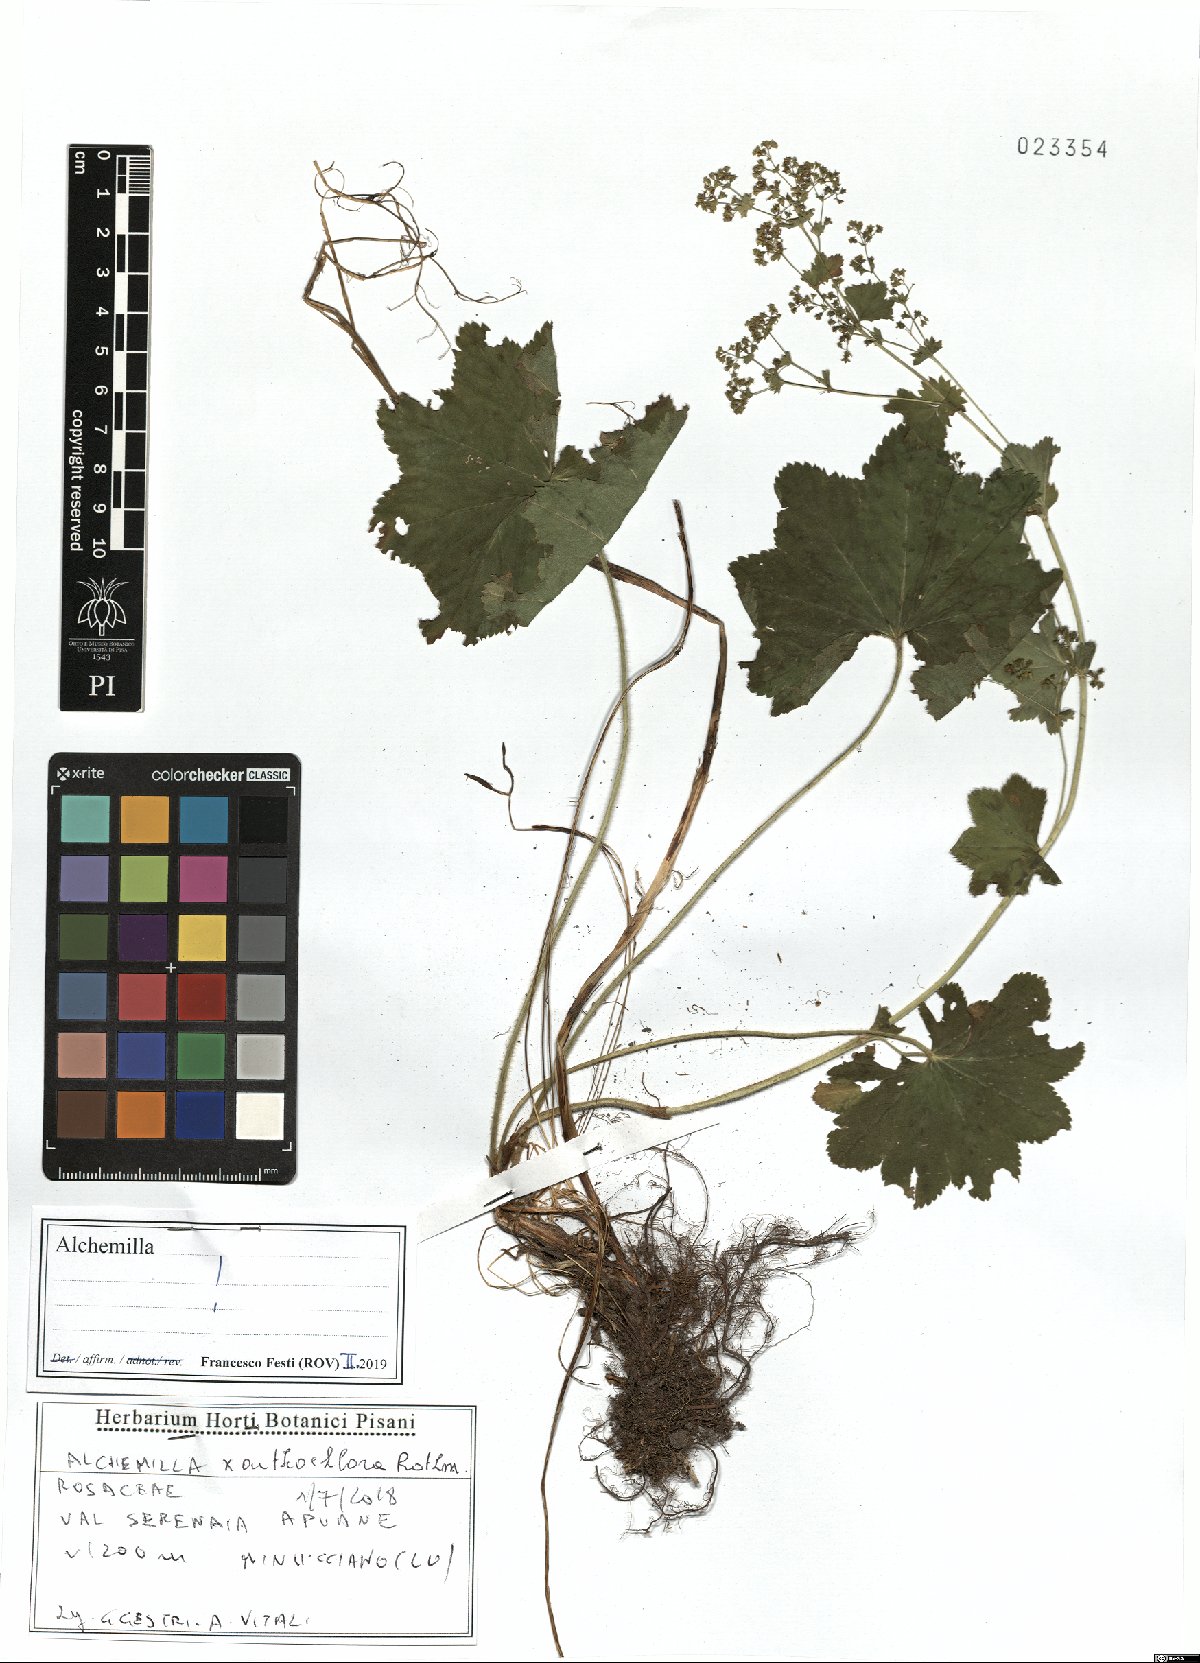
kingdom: Plantae
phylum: Tracheophyta
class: Magnoliopsida
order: Rosales
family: Rosaceae
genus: Alchemilla
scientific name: Alchemilla xanthochlora
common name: Intermediate lady's-mantle
